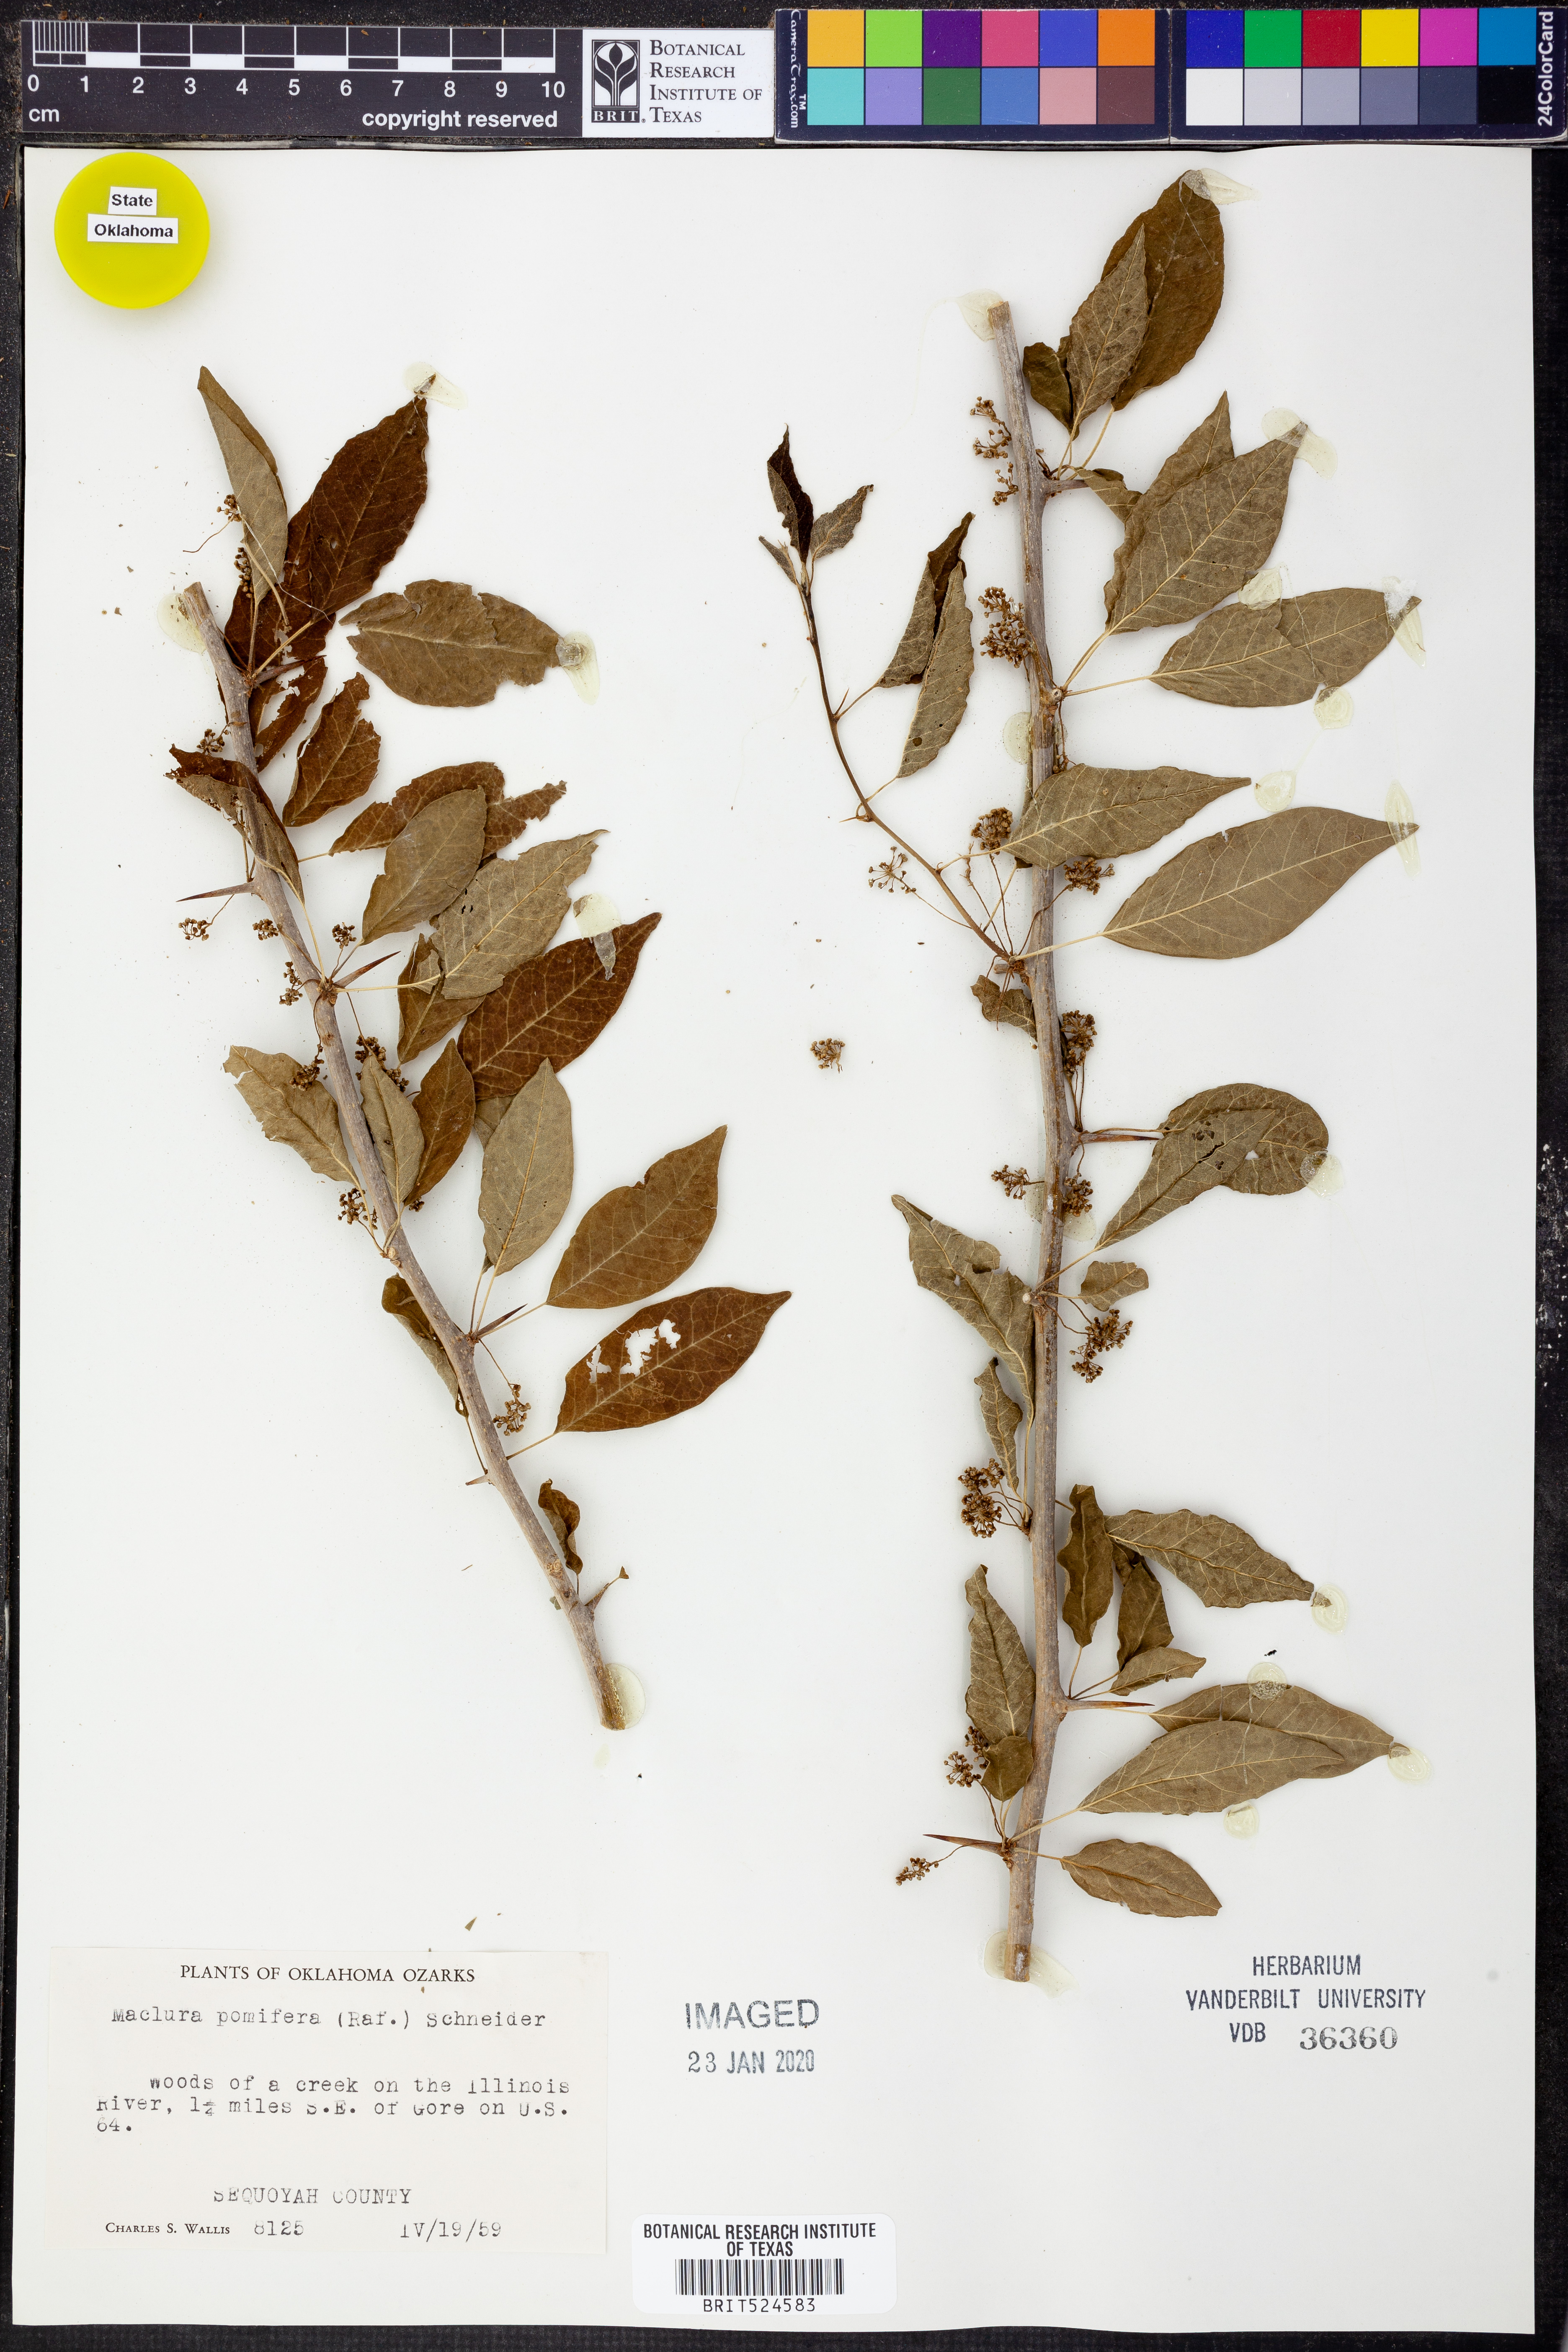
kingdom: Plantae
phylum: Tracheophyta
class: Magnoliopsida
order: Rosales
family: Moraceae
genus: Maclura
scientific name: Maclura pomifera
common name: Osage-orange
